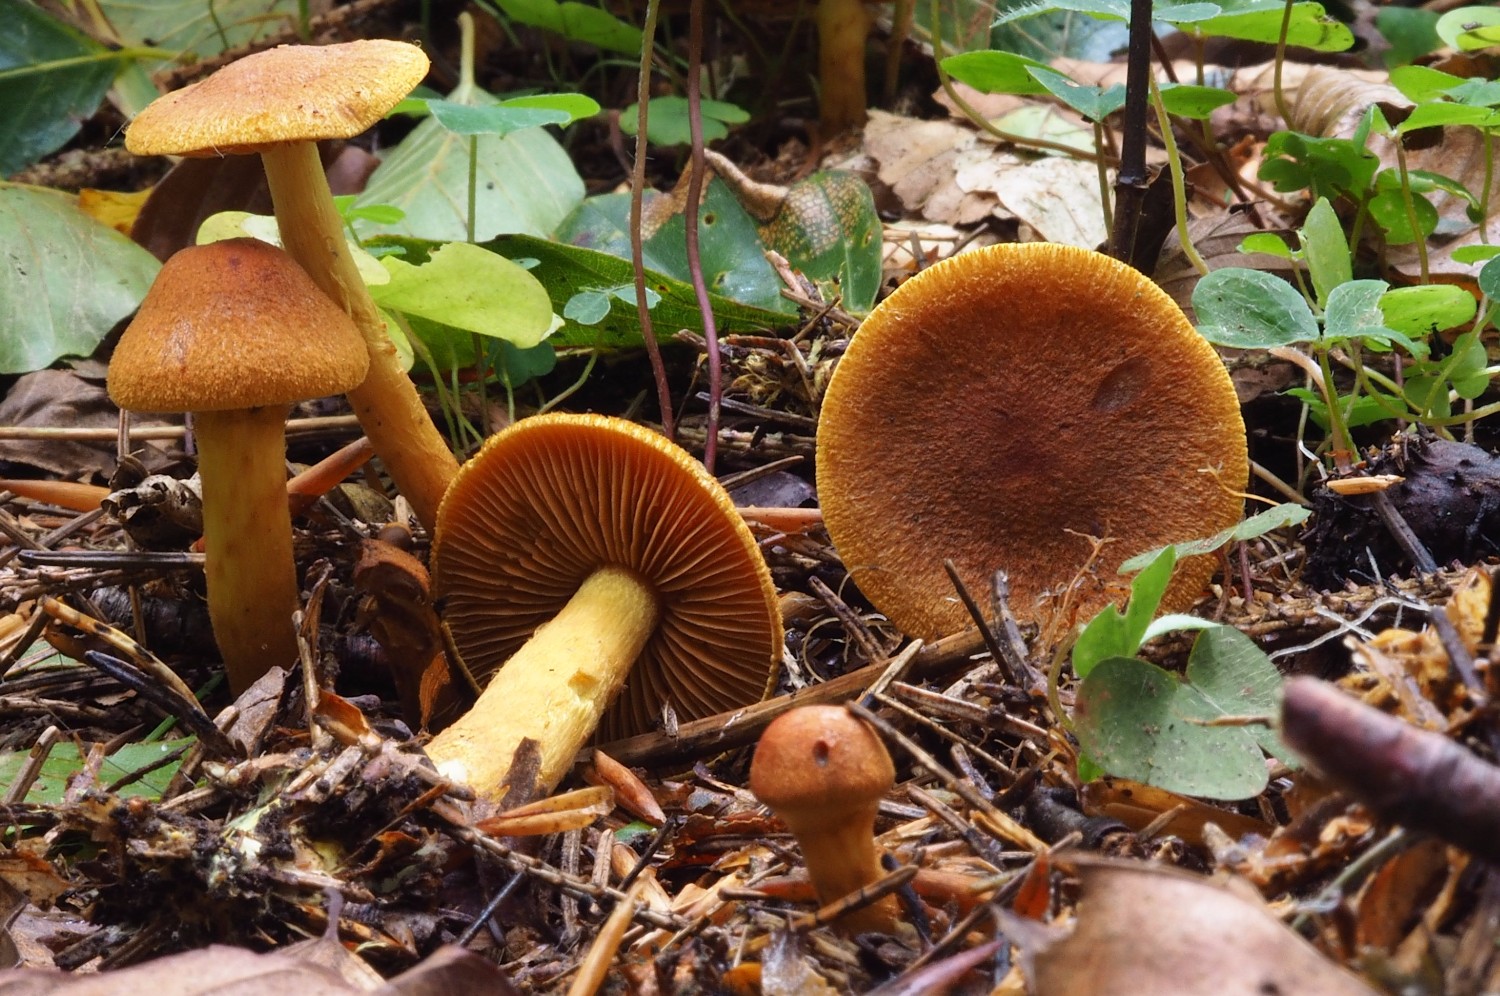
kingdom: Fungi
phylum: Basidiomycota
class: Agaricomycetes
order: Agaricales
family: Cortinariaceae
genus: Cortinarius
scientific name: Cortinarius malicorius
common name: grønkødet slørhat
